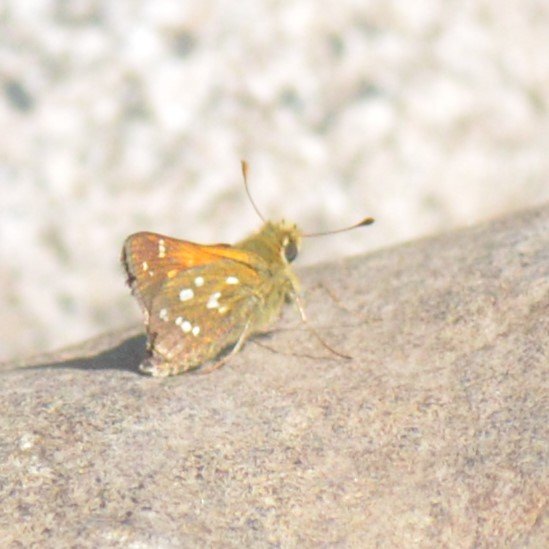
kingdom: Animalia
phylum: Arthropoda
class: Insecta
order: Lepidoptera
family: Hesperiidae
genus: Hesperia
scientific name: Hesperia comma
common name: Common Branded Skipper
